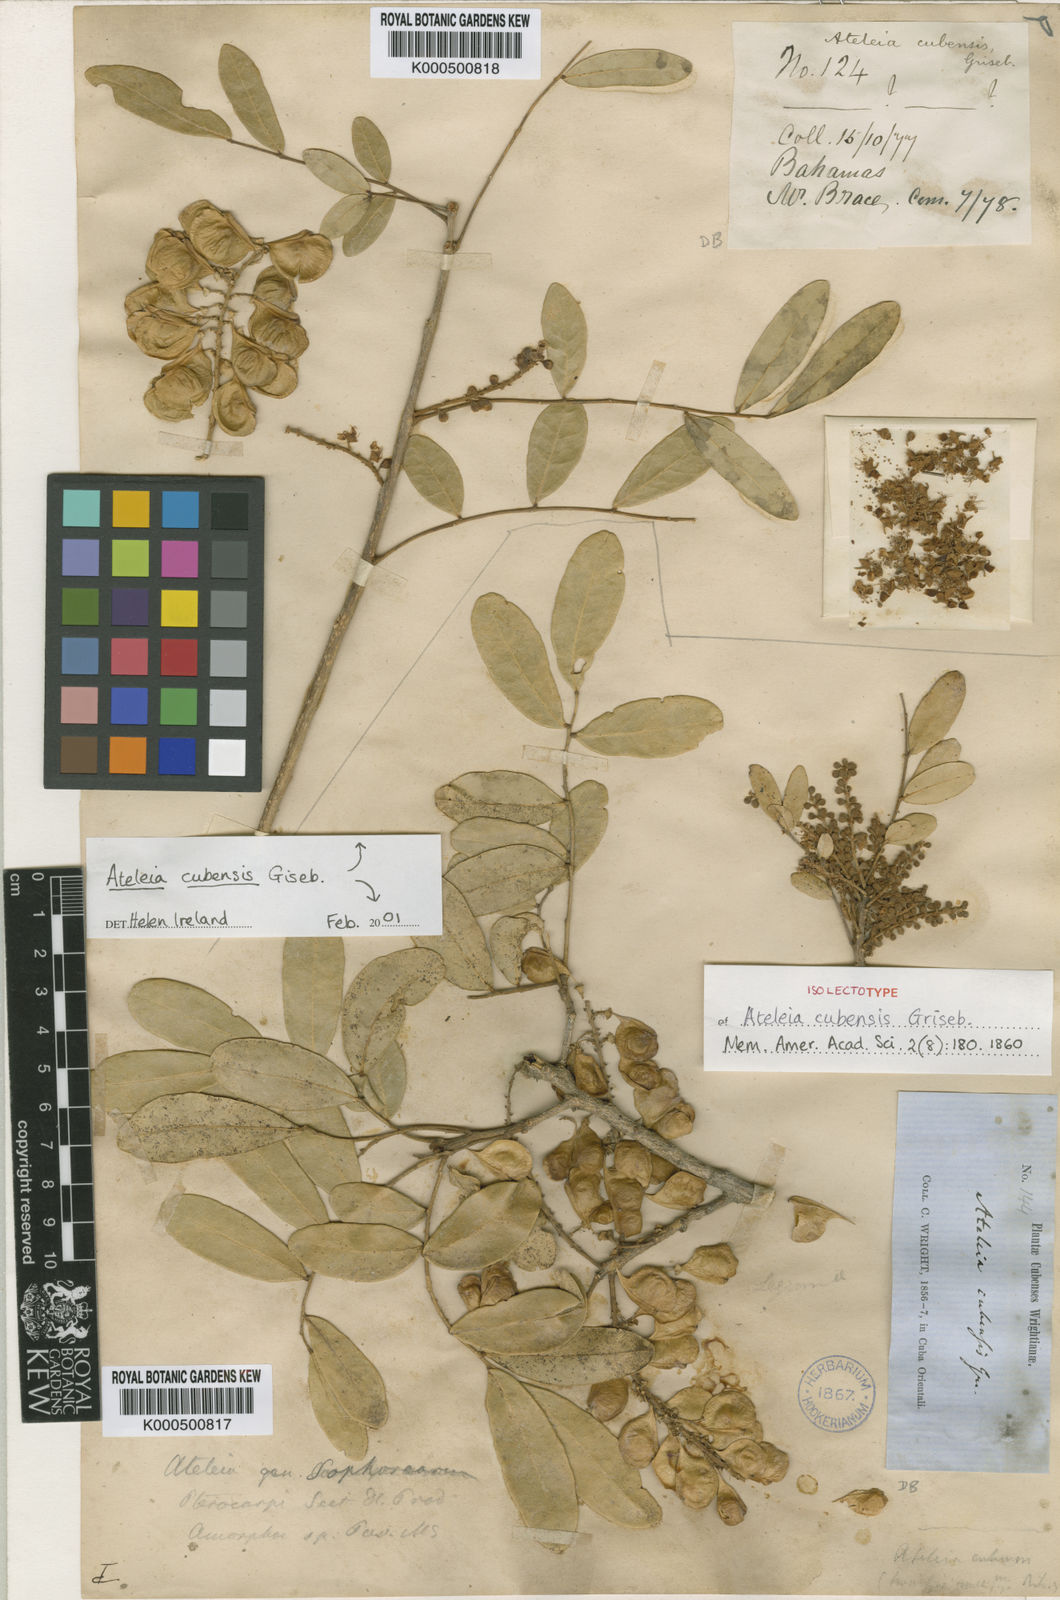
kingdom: Plantae
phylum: Tracheophyta
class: Magnoliopsida
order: Fabales
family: Fabaceae
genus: Ateleia
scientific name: Ateleia cubensis
